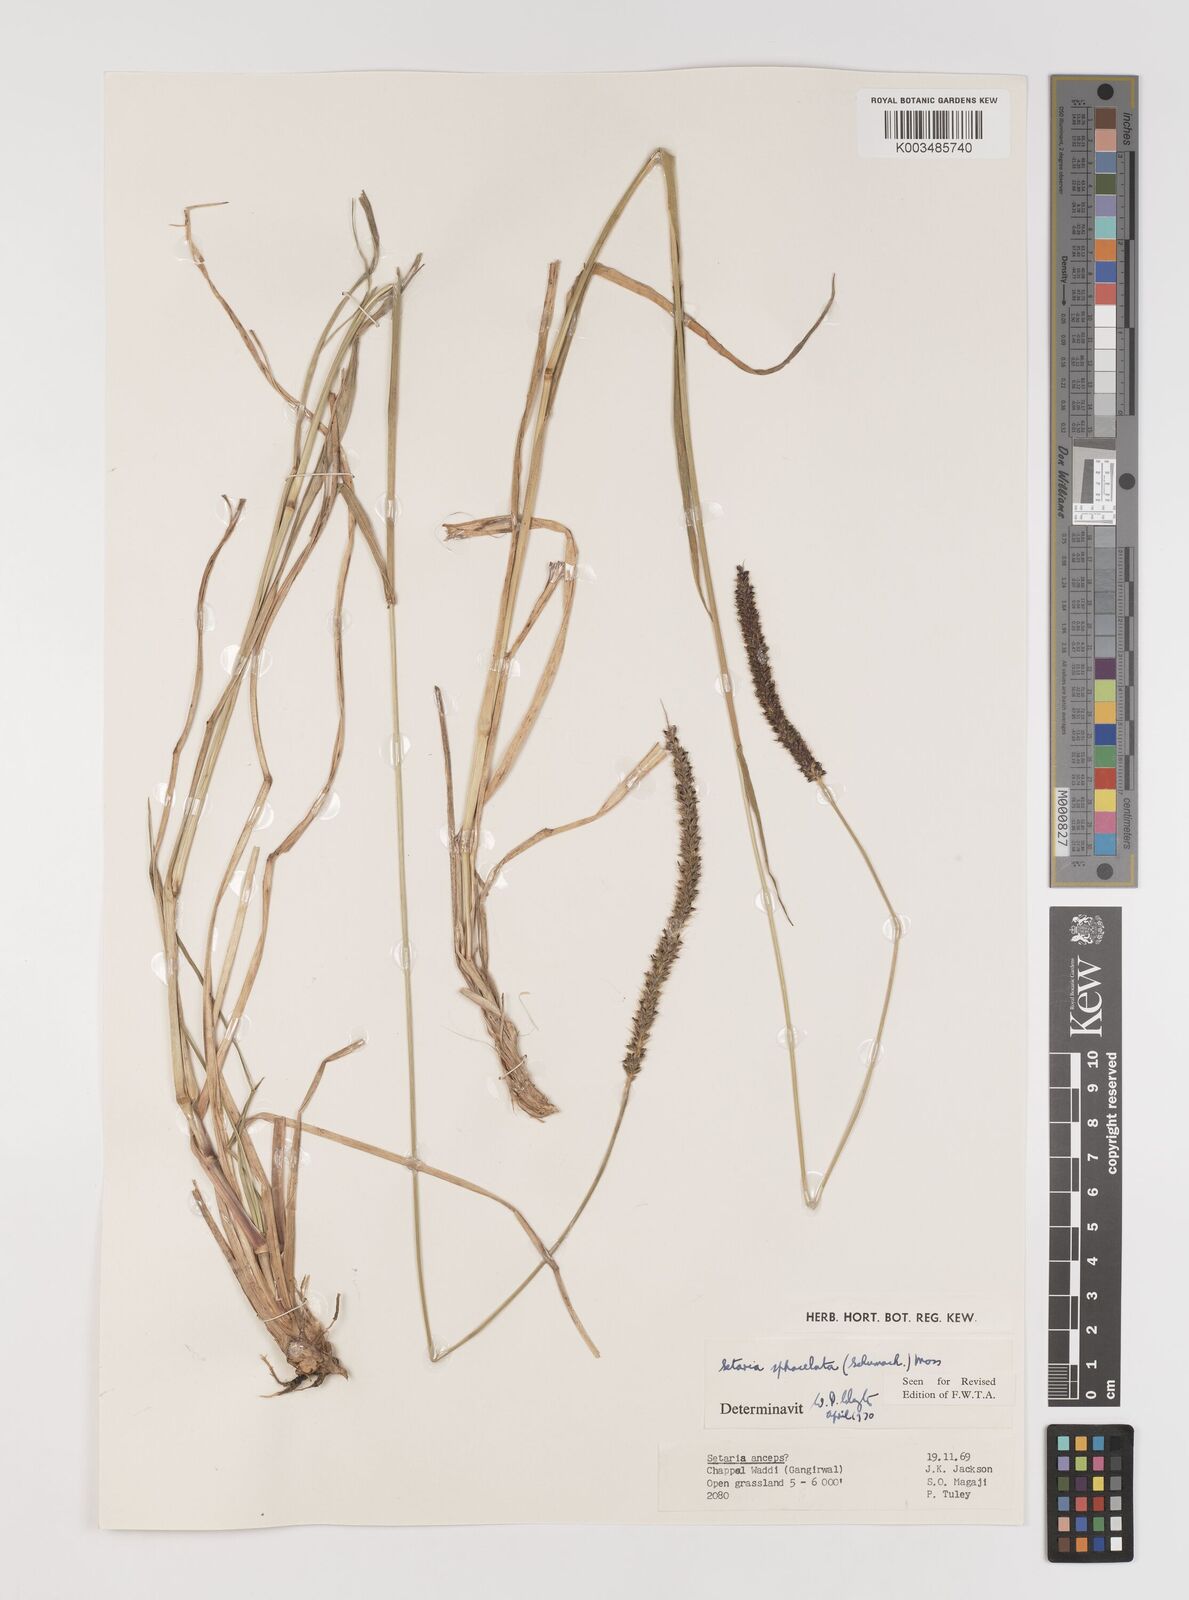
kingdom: Plantae
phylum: Tracheophyta
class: Liliopsida
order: Poales
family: Poaceae
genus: Setaria
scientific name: Setaria sphacelata
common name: African bristlegrass
